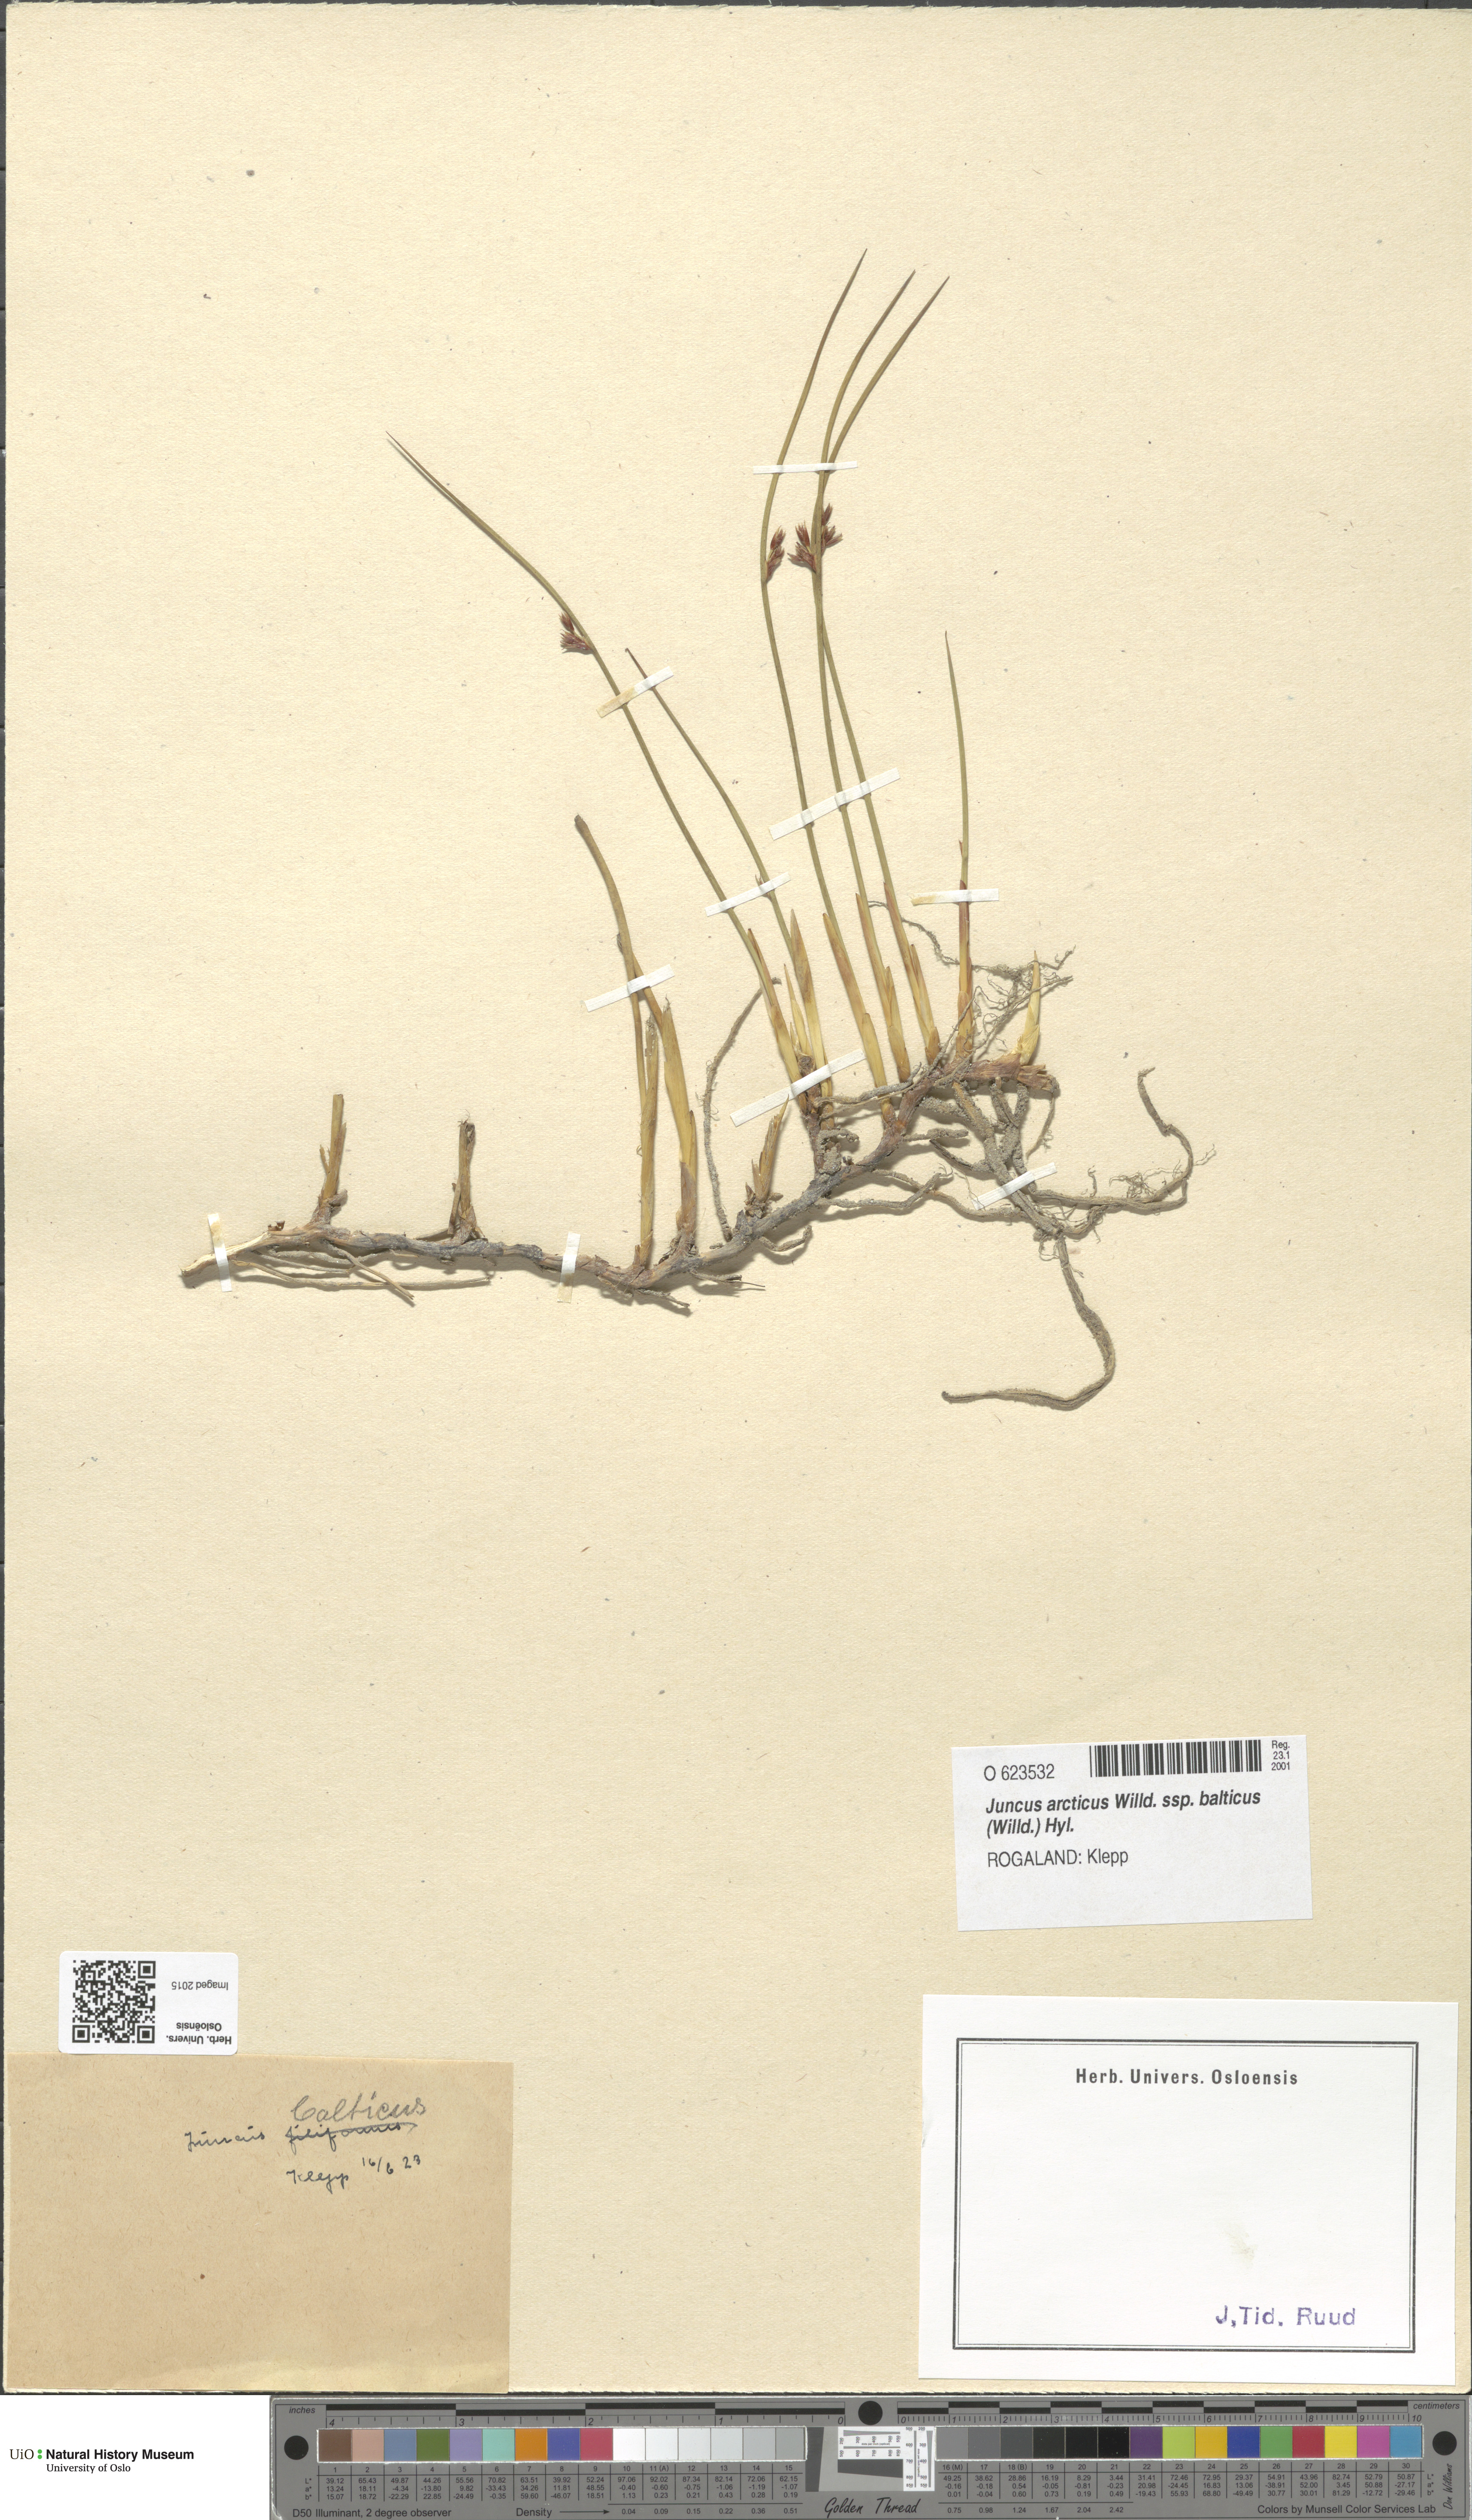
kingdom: Plantae
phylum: Tracheophyta
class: Liliopsida
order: Poales
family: Juncaceae
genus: Juncus
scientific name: Juncus balticus
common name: Baltic rush
